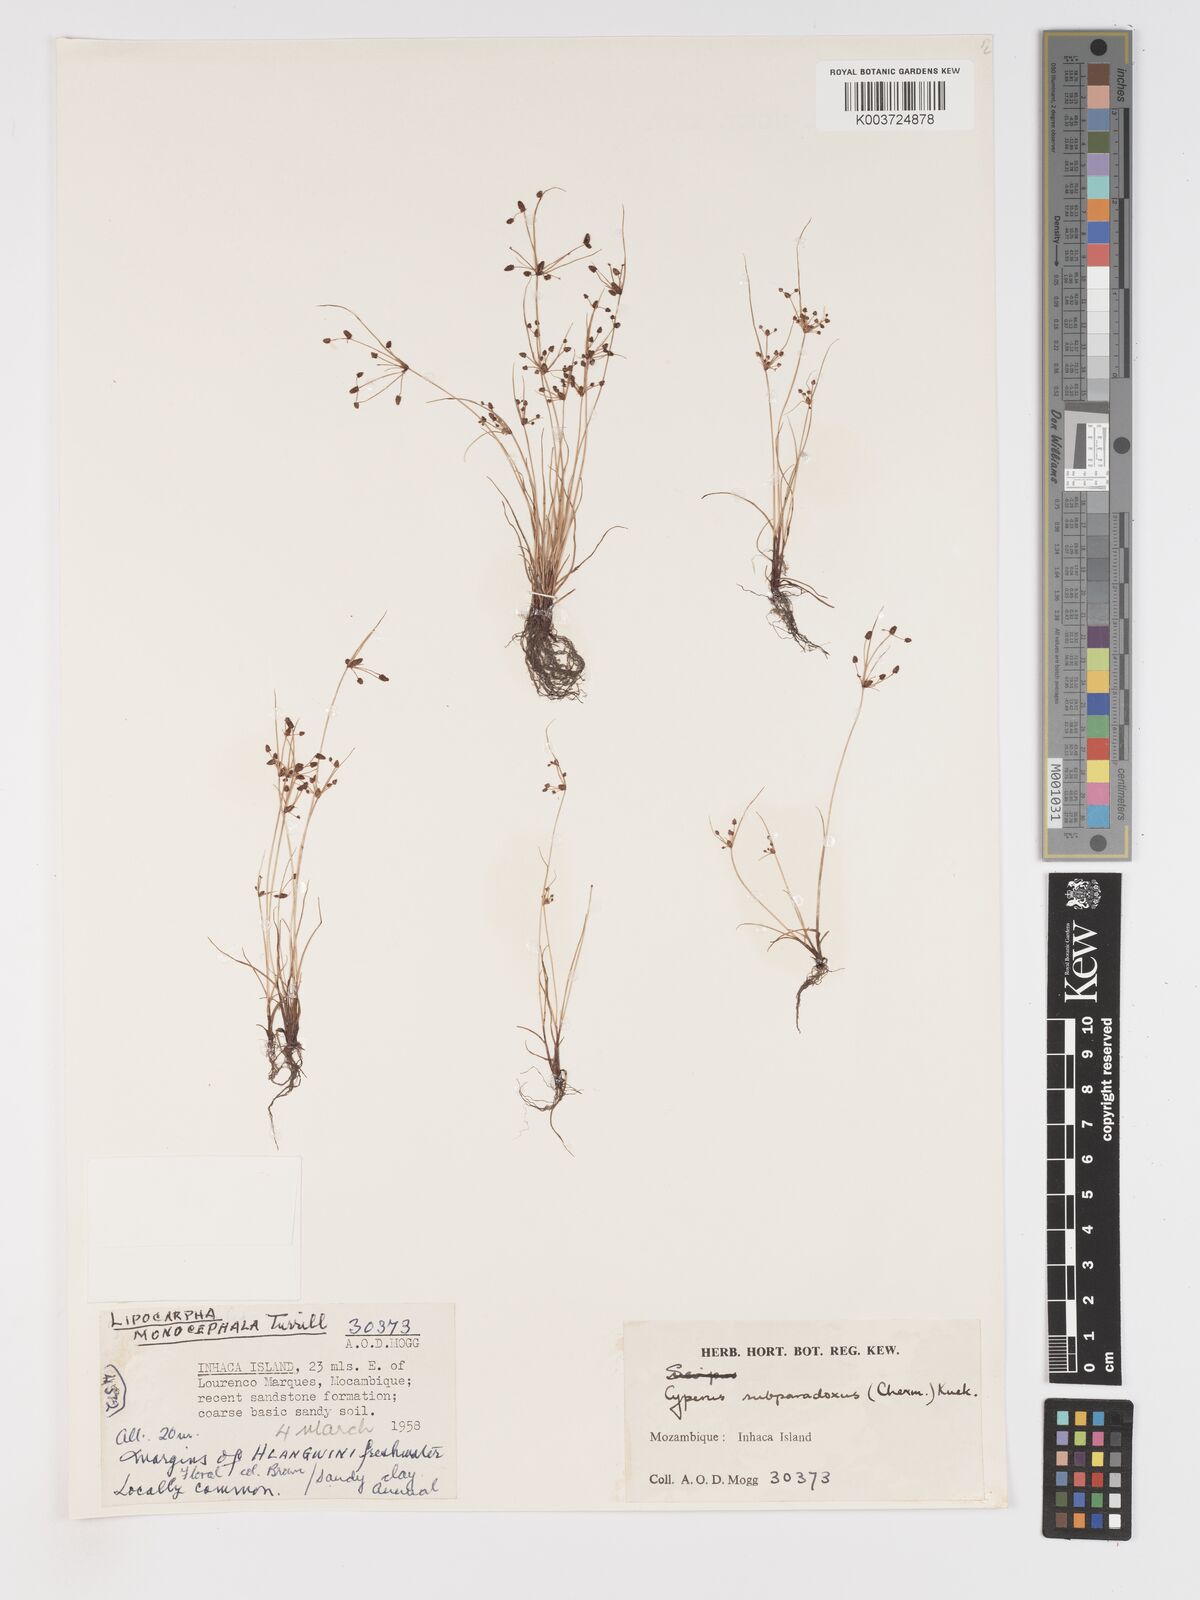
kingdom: Plantae
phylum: Tracheophyta
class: Liliopsida
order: Poales
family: Cyperaceae
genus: Cyperus
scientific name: Cyperus subparadoxus
